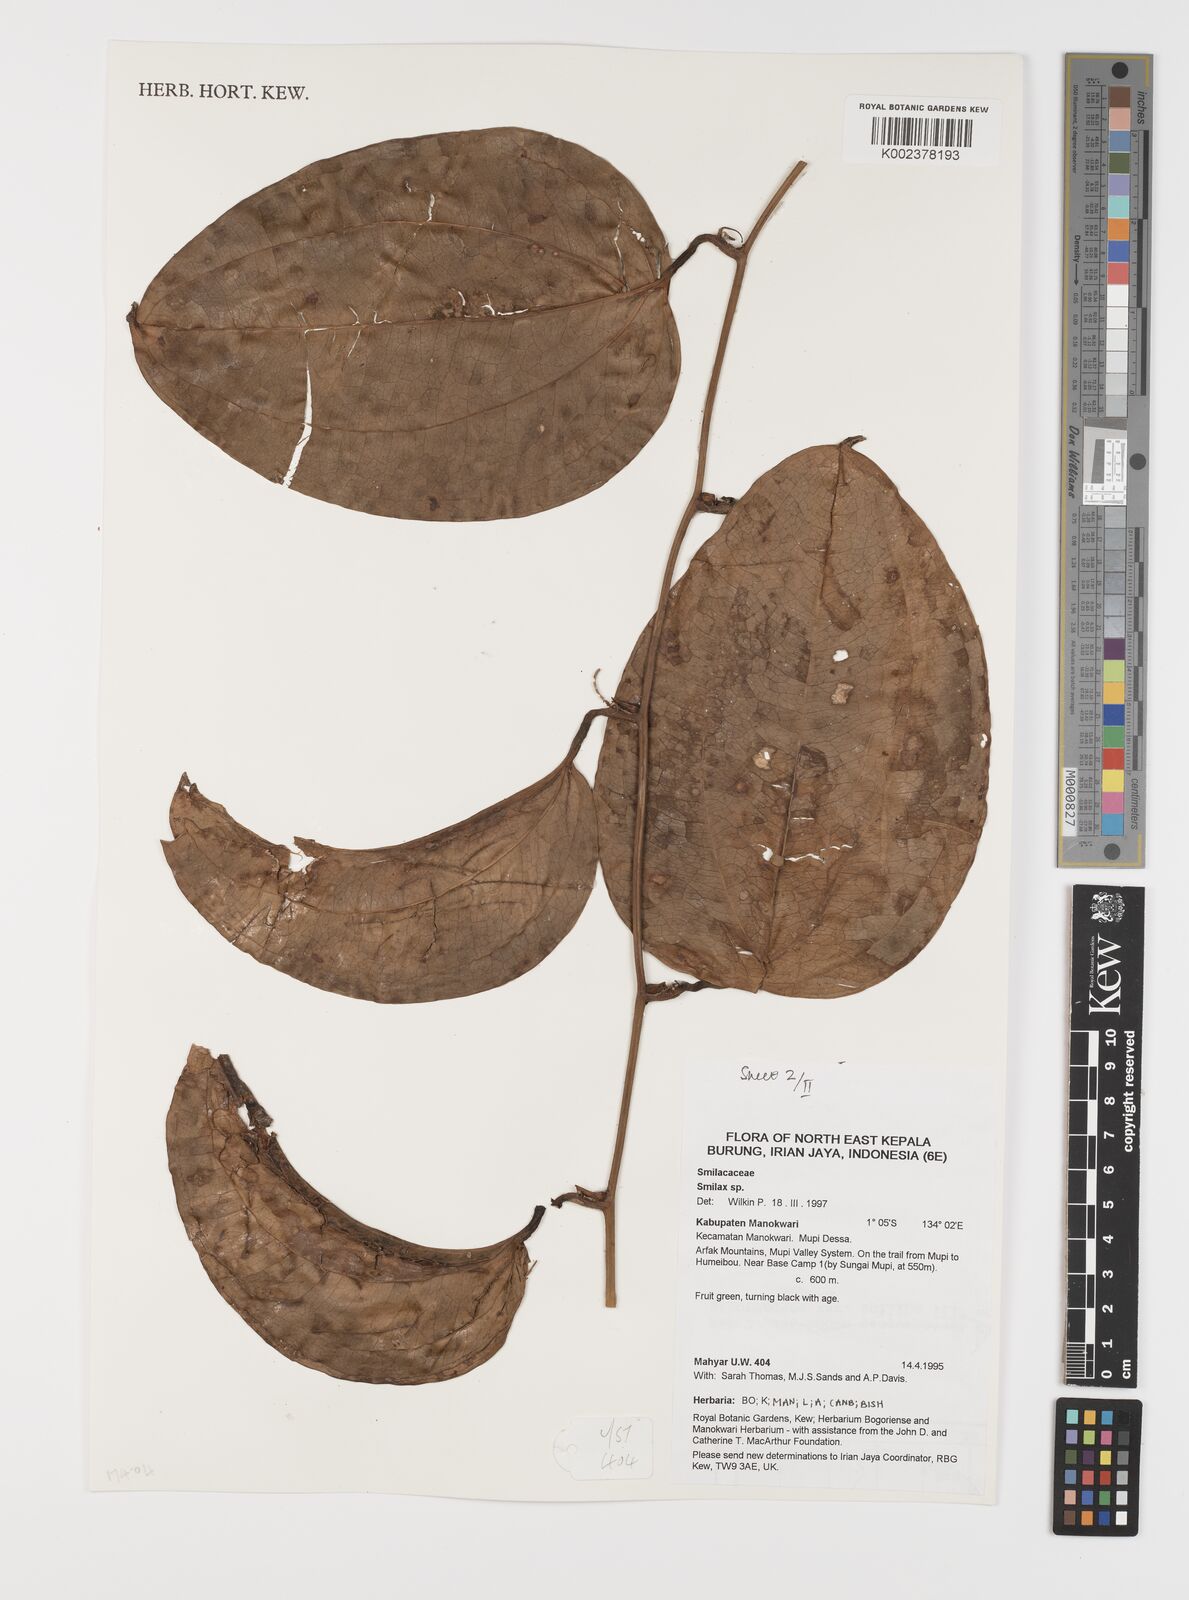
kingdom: Plantae
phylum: Tracheophyta
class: Liliopsida
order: Liliales
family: Smilacaceae
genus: Smilax
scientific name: Smilax
